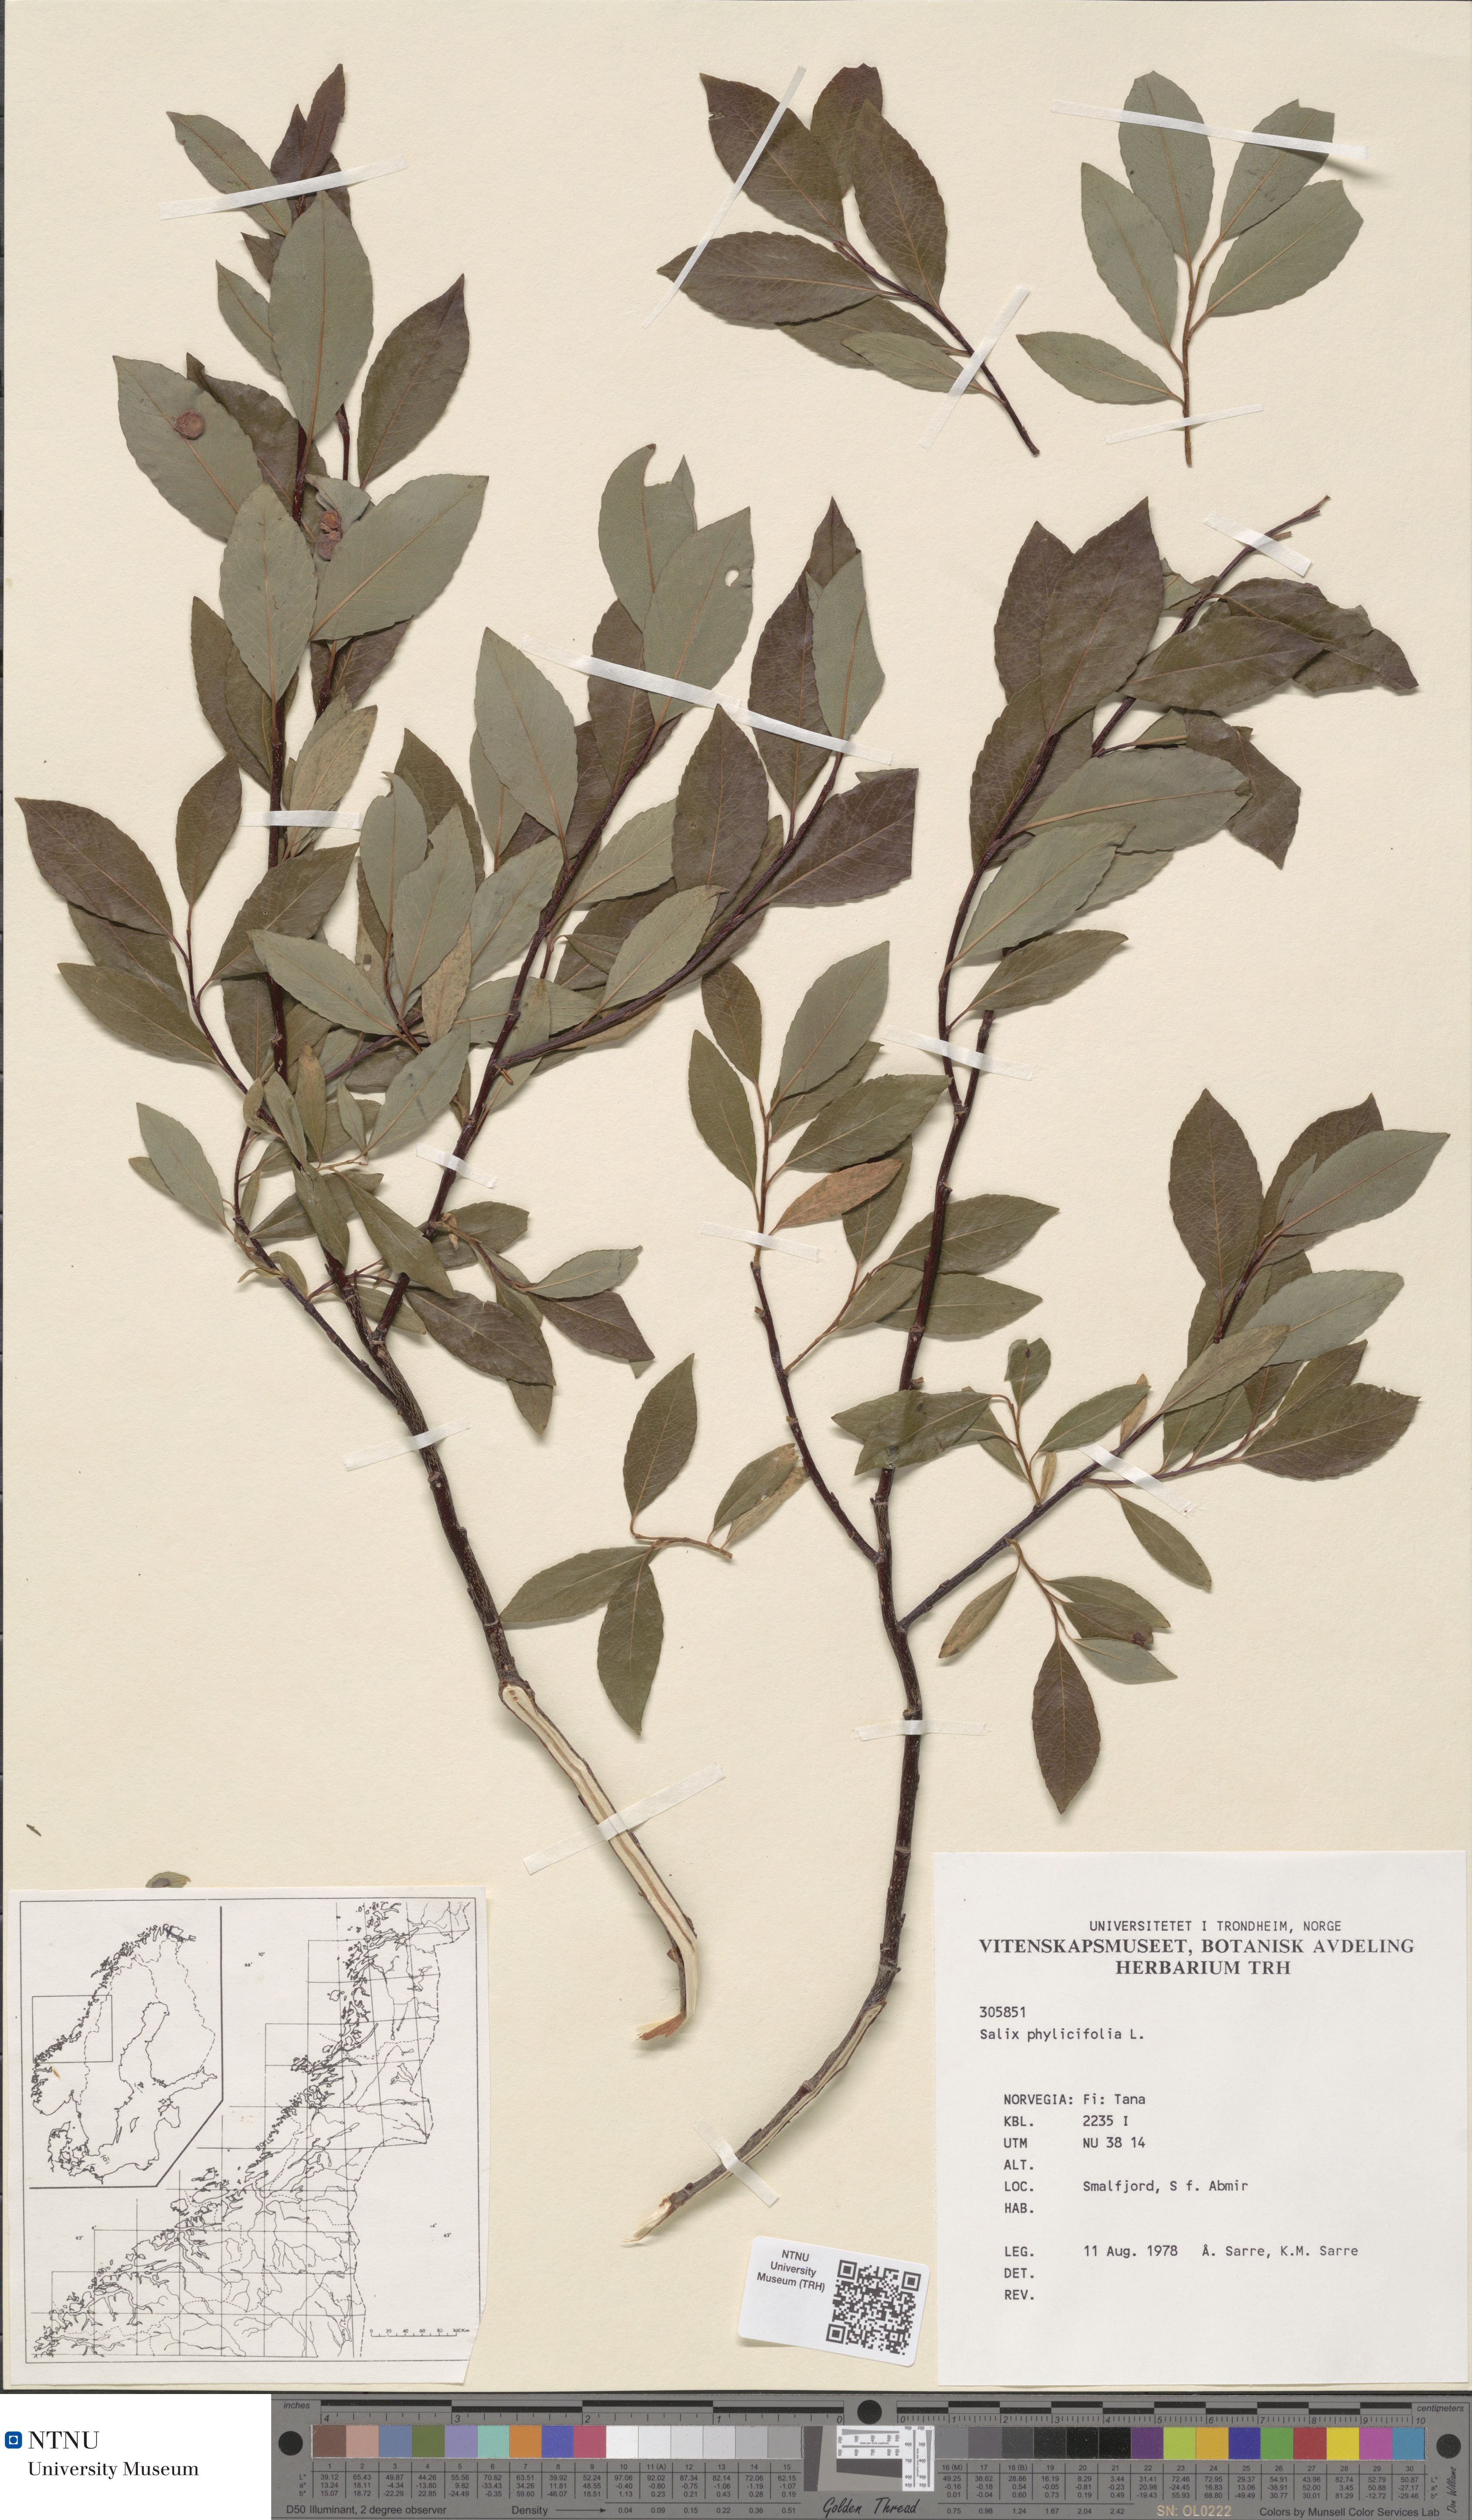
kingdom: Plantae
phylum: Tracheophyta
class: Magnoliopsida
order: Malpighiales
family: Salicaceae
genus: Salix
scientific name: Salix phylicifolia
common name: Tea-leaved willow
